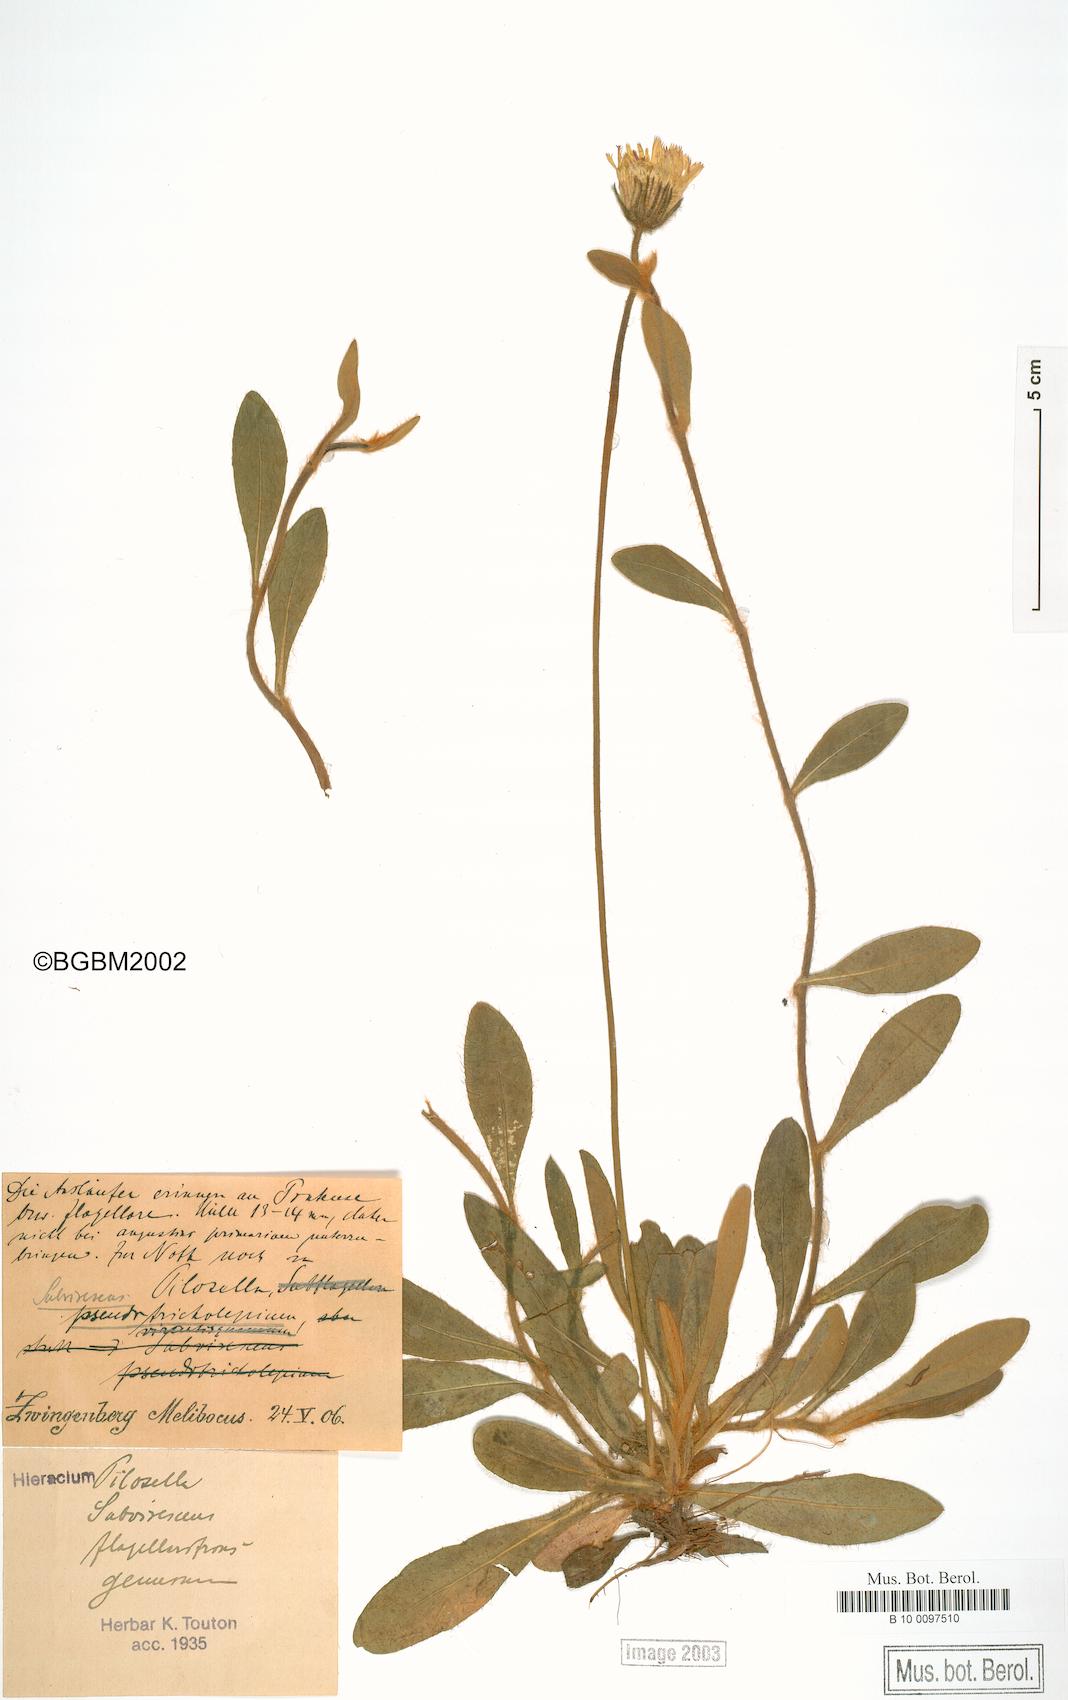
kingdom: Plantae
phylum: Tracheophyta
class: Magnoliopsida
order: Asterales
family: Asteraceae
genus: Pilosella
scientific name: Pilosella officinarum
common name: Mouse-ear hawkweed
